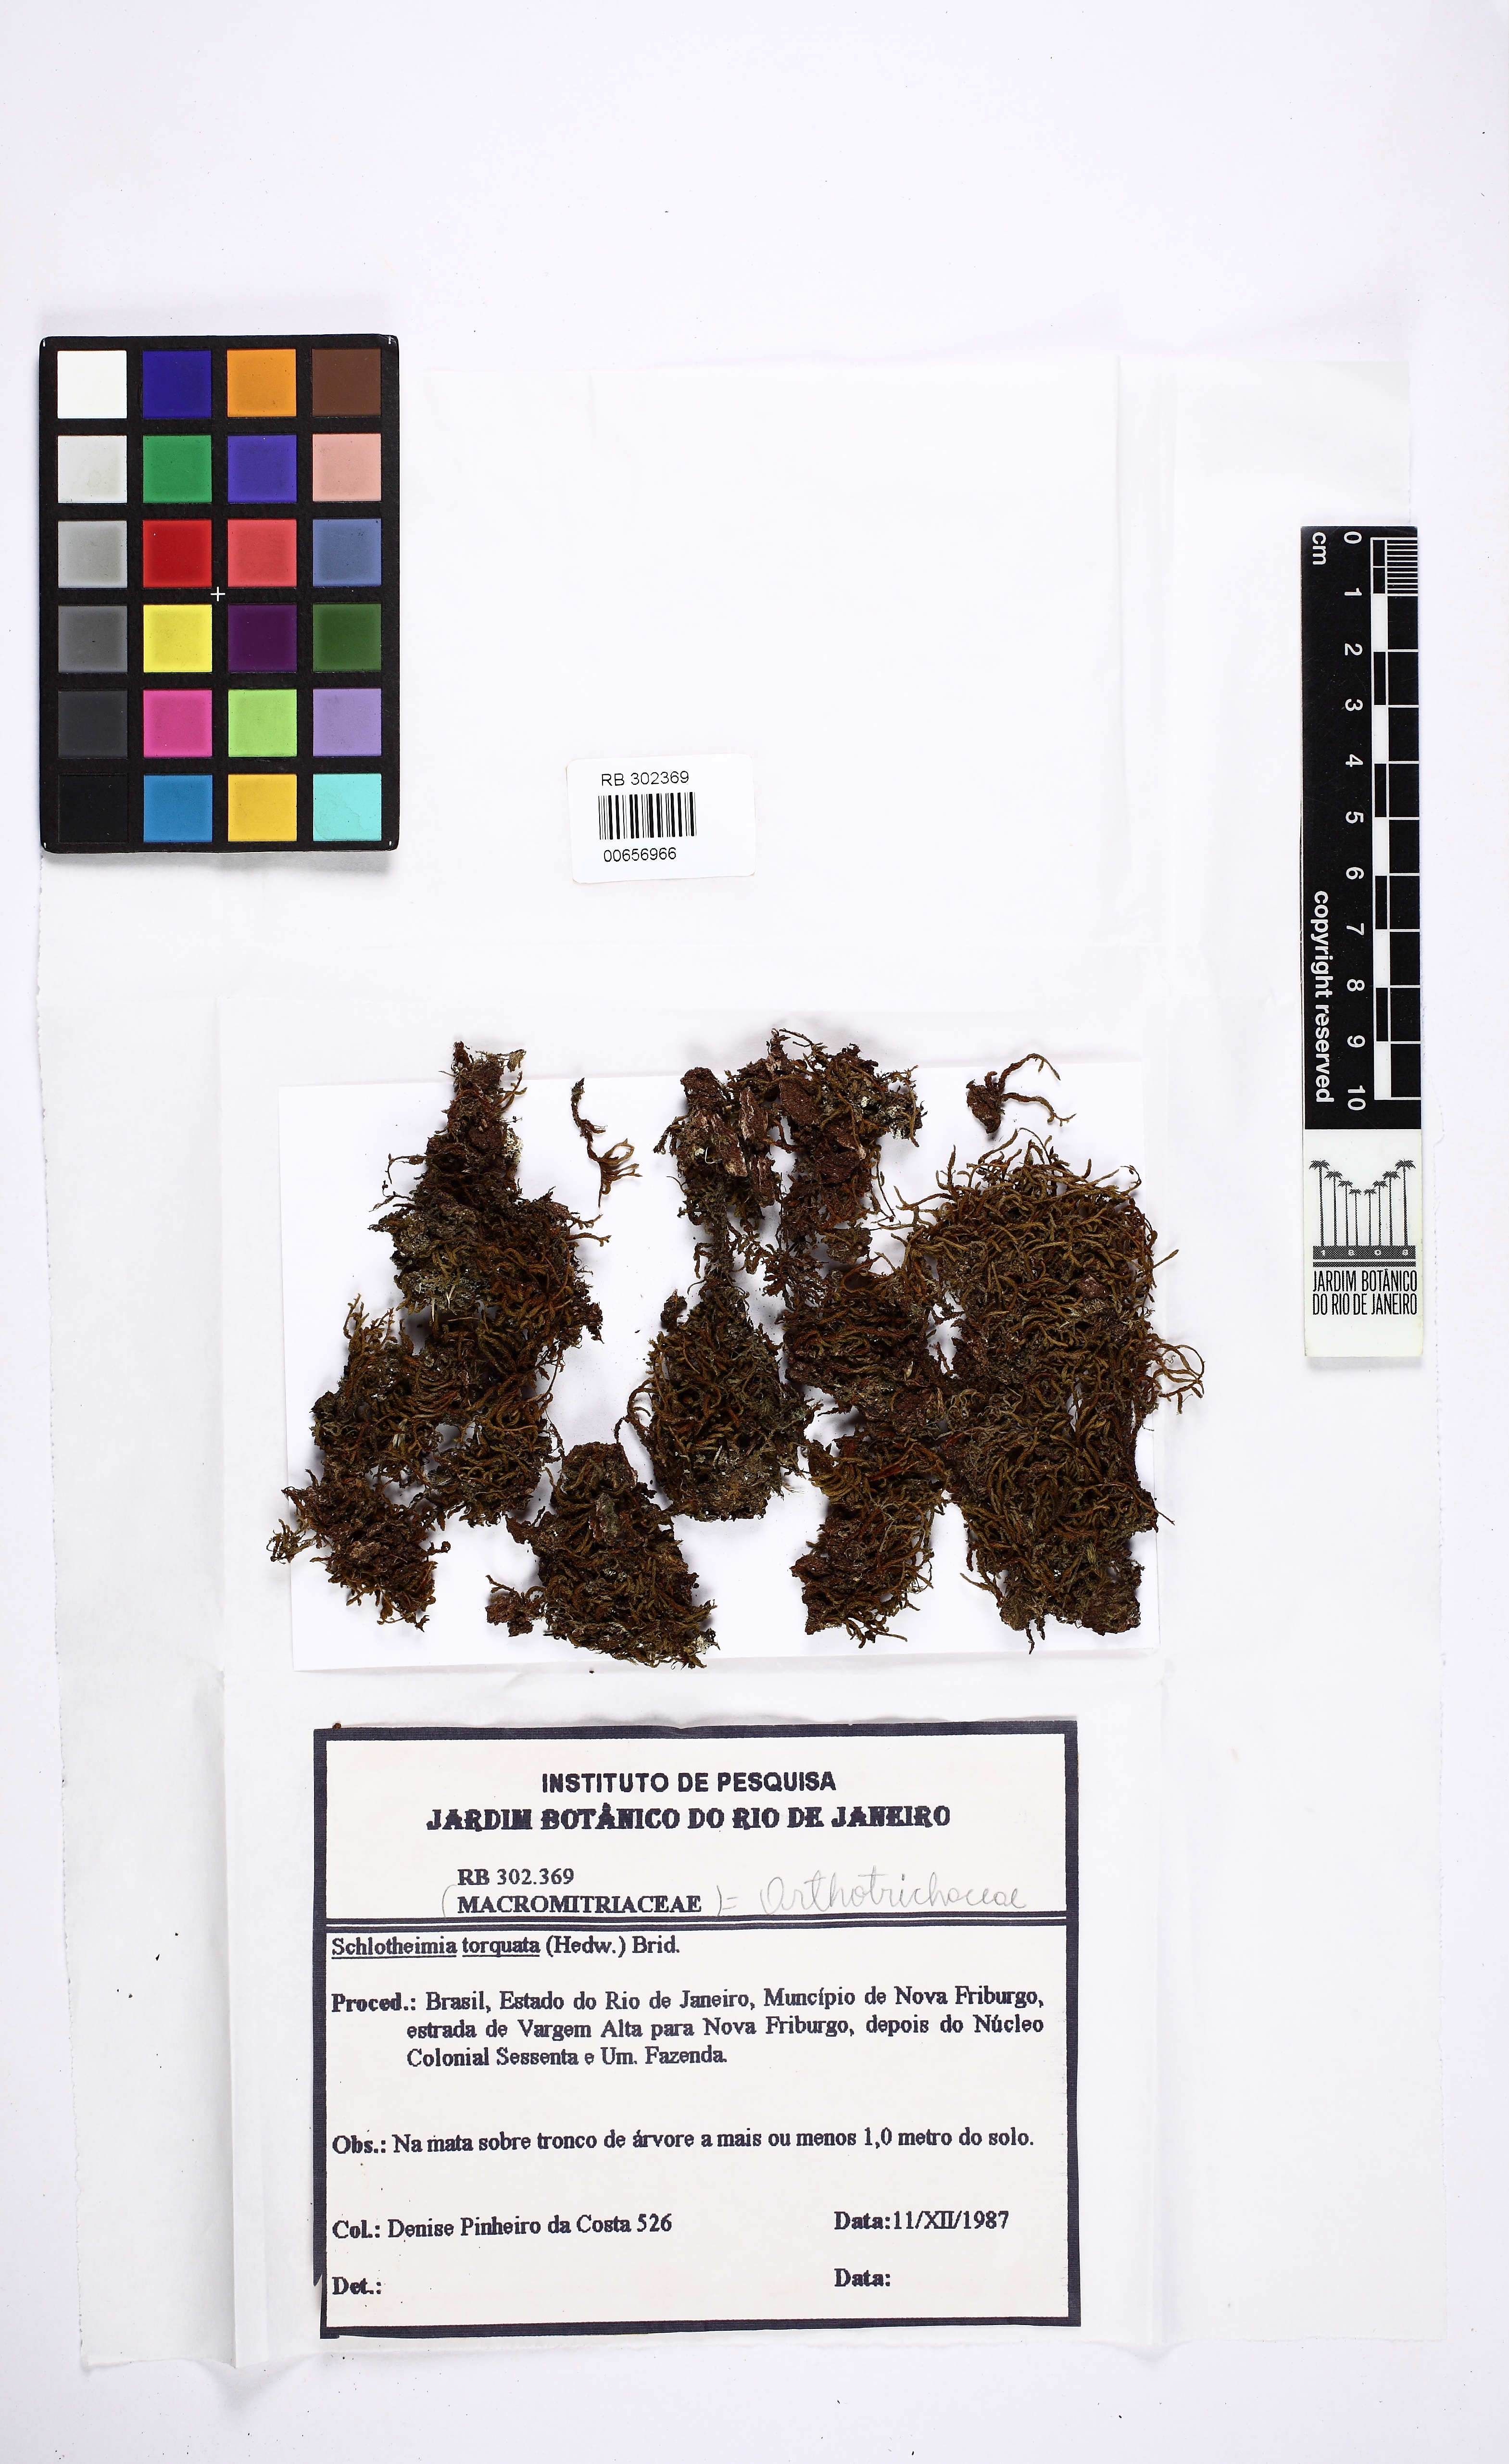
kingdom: Plantae
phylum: Bryophyta
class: Bryopsida
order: Orthotrichales
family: Orthotrichaceae
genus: Schlotheimia
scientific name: Schlotheimia torquata
